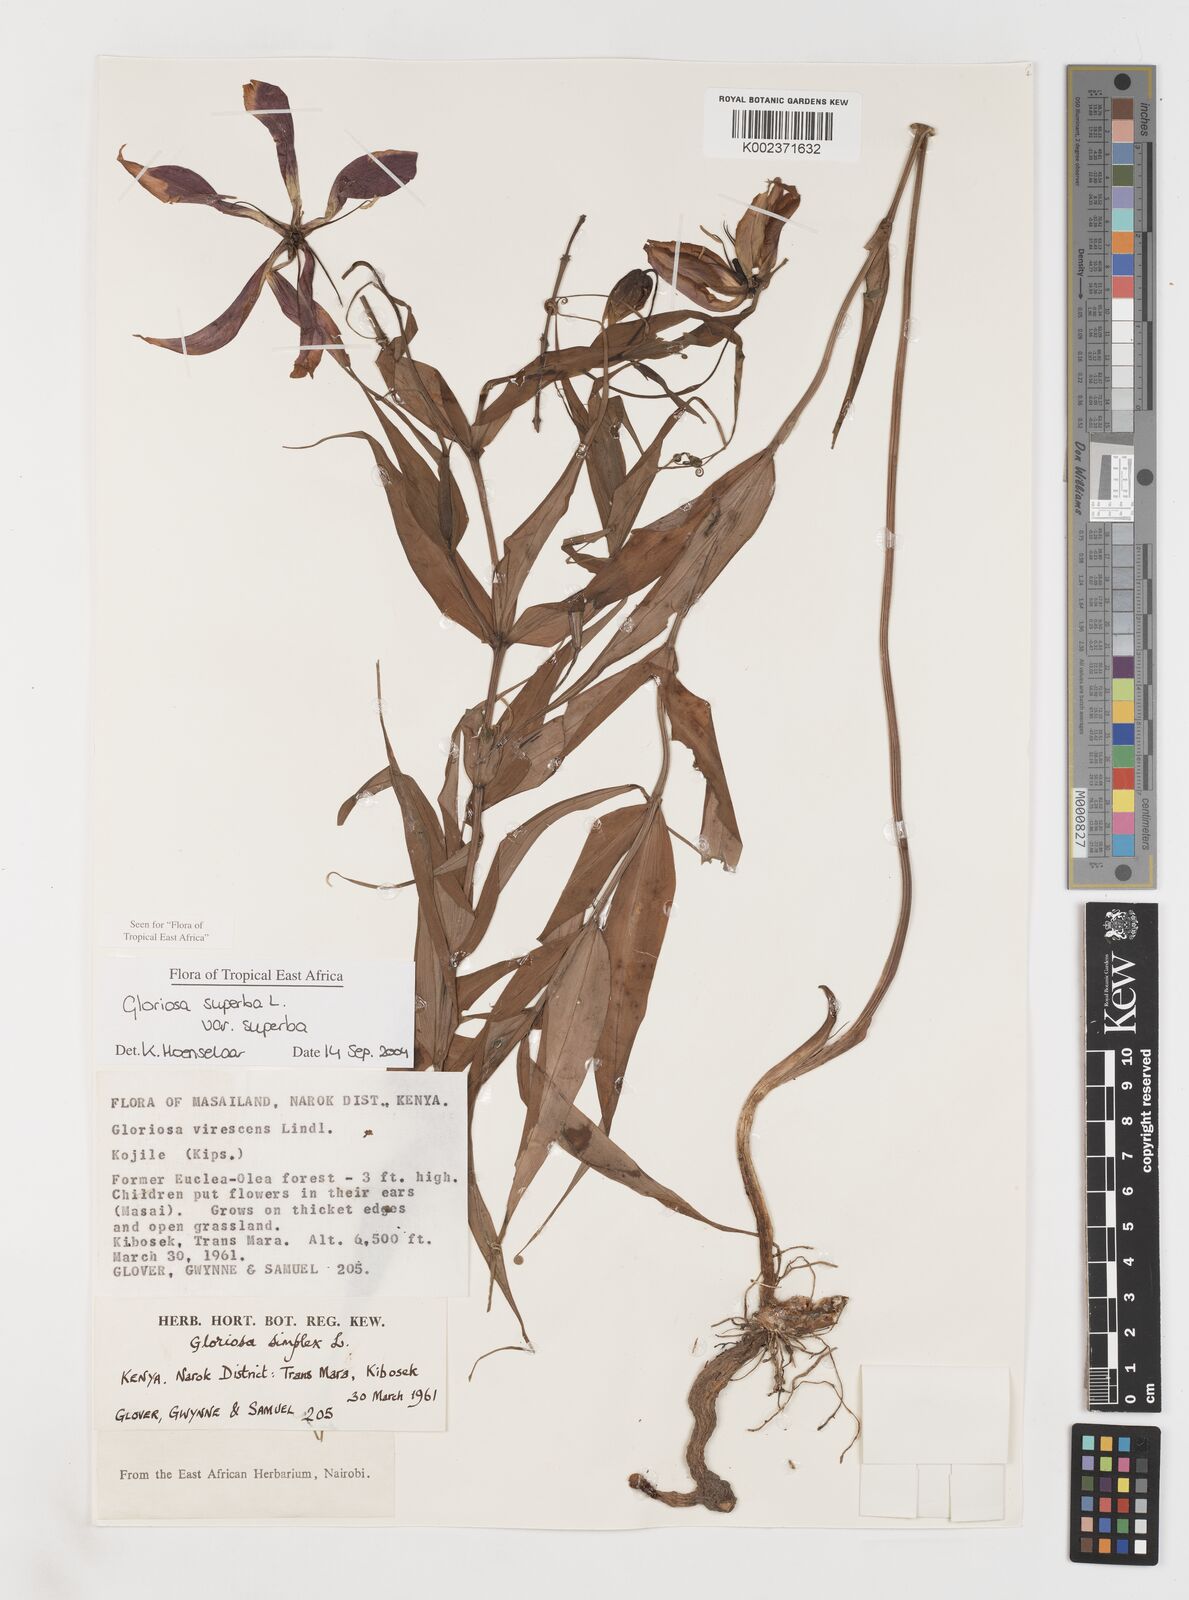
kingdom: Plantae
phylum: Tracheophyta
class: Liliopsida
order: Liliales
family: Colchicaceae
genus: Gloriosa
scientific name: Gloriosa simplex
